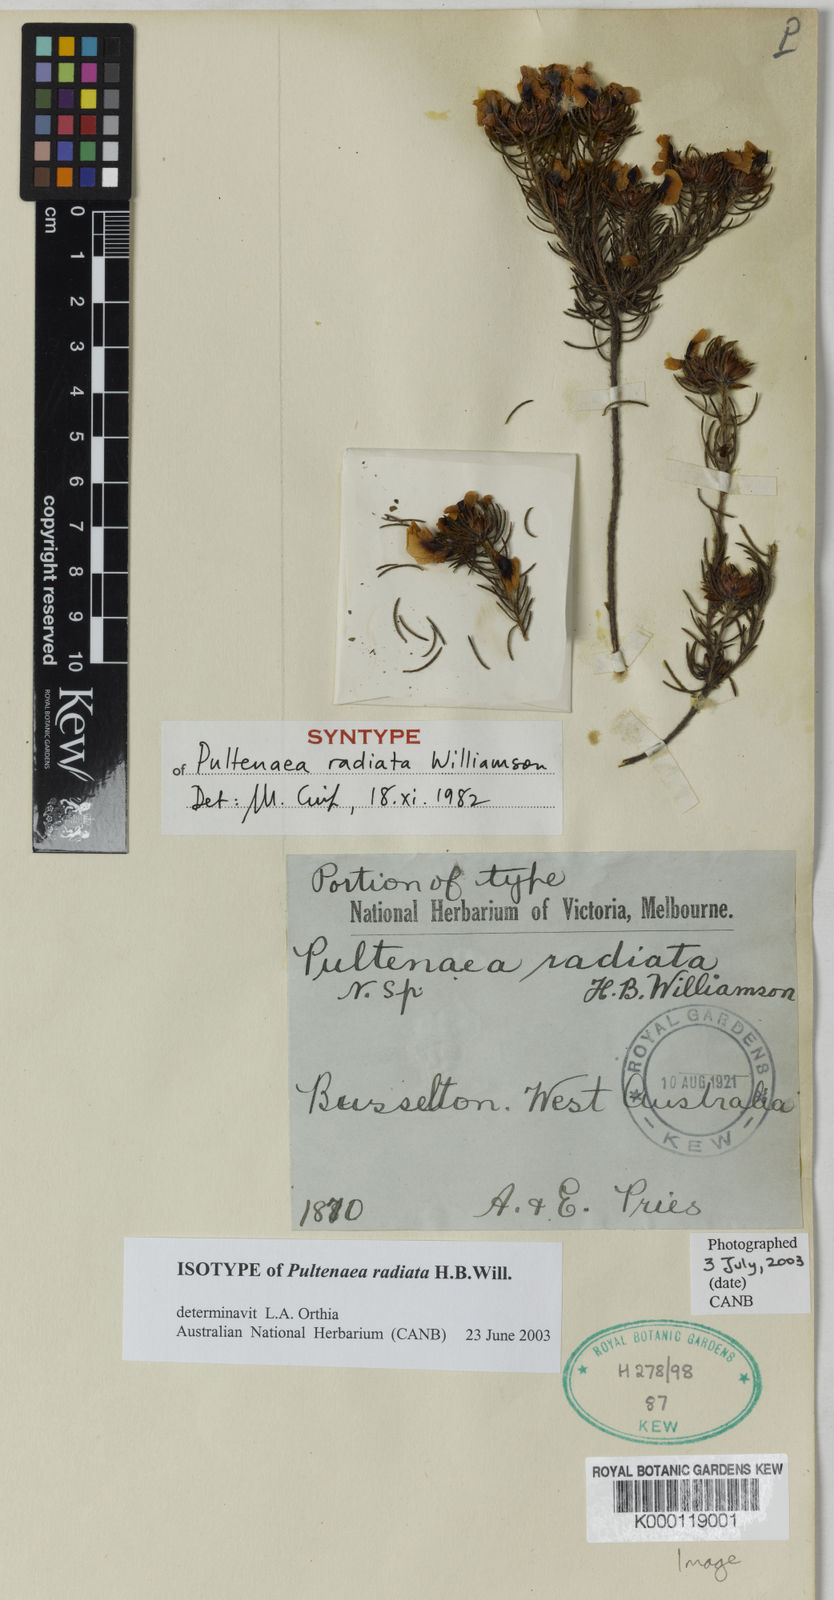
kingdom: Plantae
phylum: Tracheophyta
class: Magnoliopsida
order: Fabales
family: Fabaceae
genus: Pultenaea
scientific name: Pultenaea radiata
